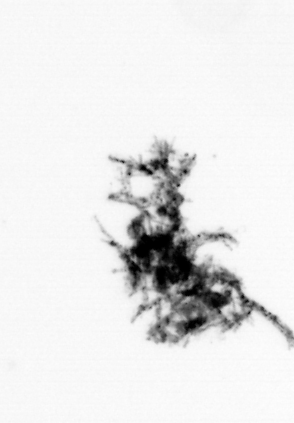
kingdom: Animalia
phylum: Cnidaria
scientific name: Cnidaria
